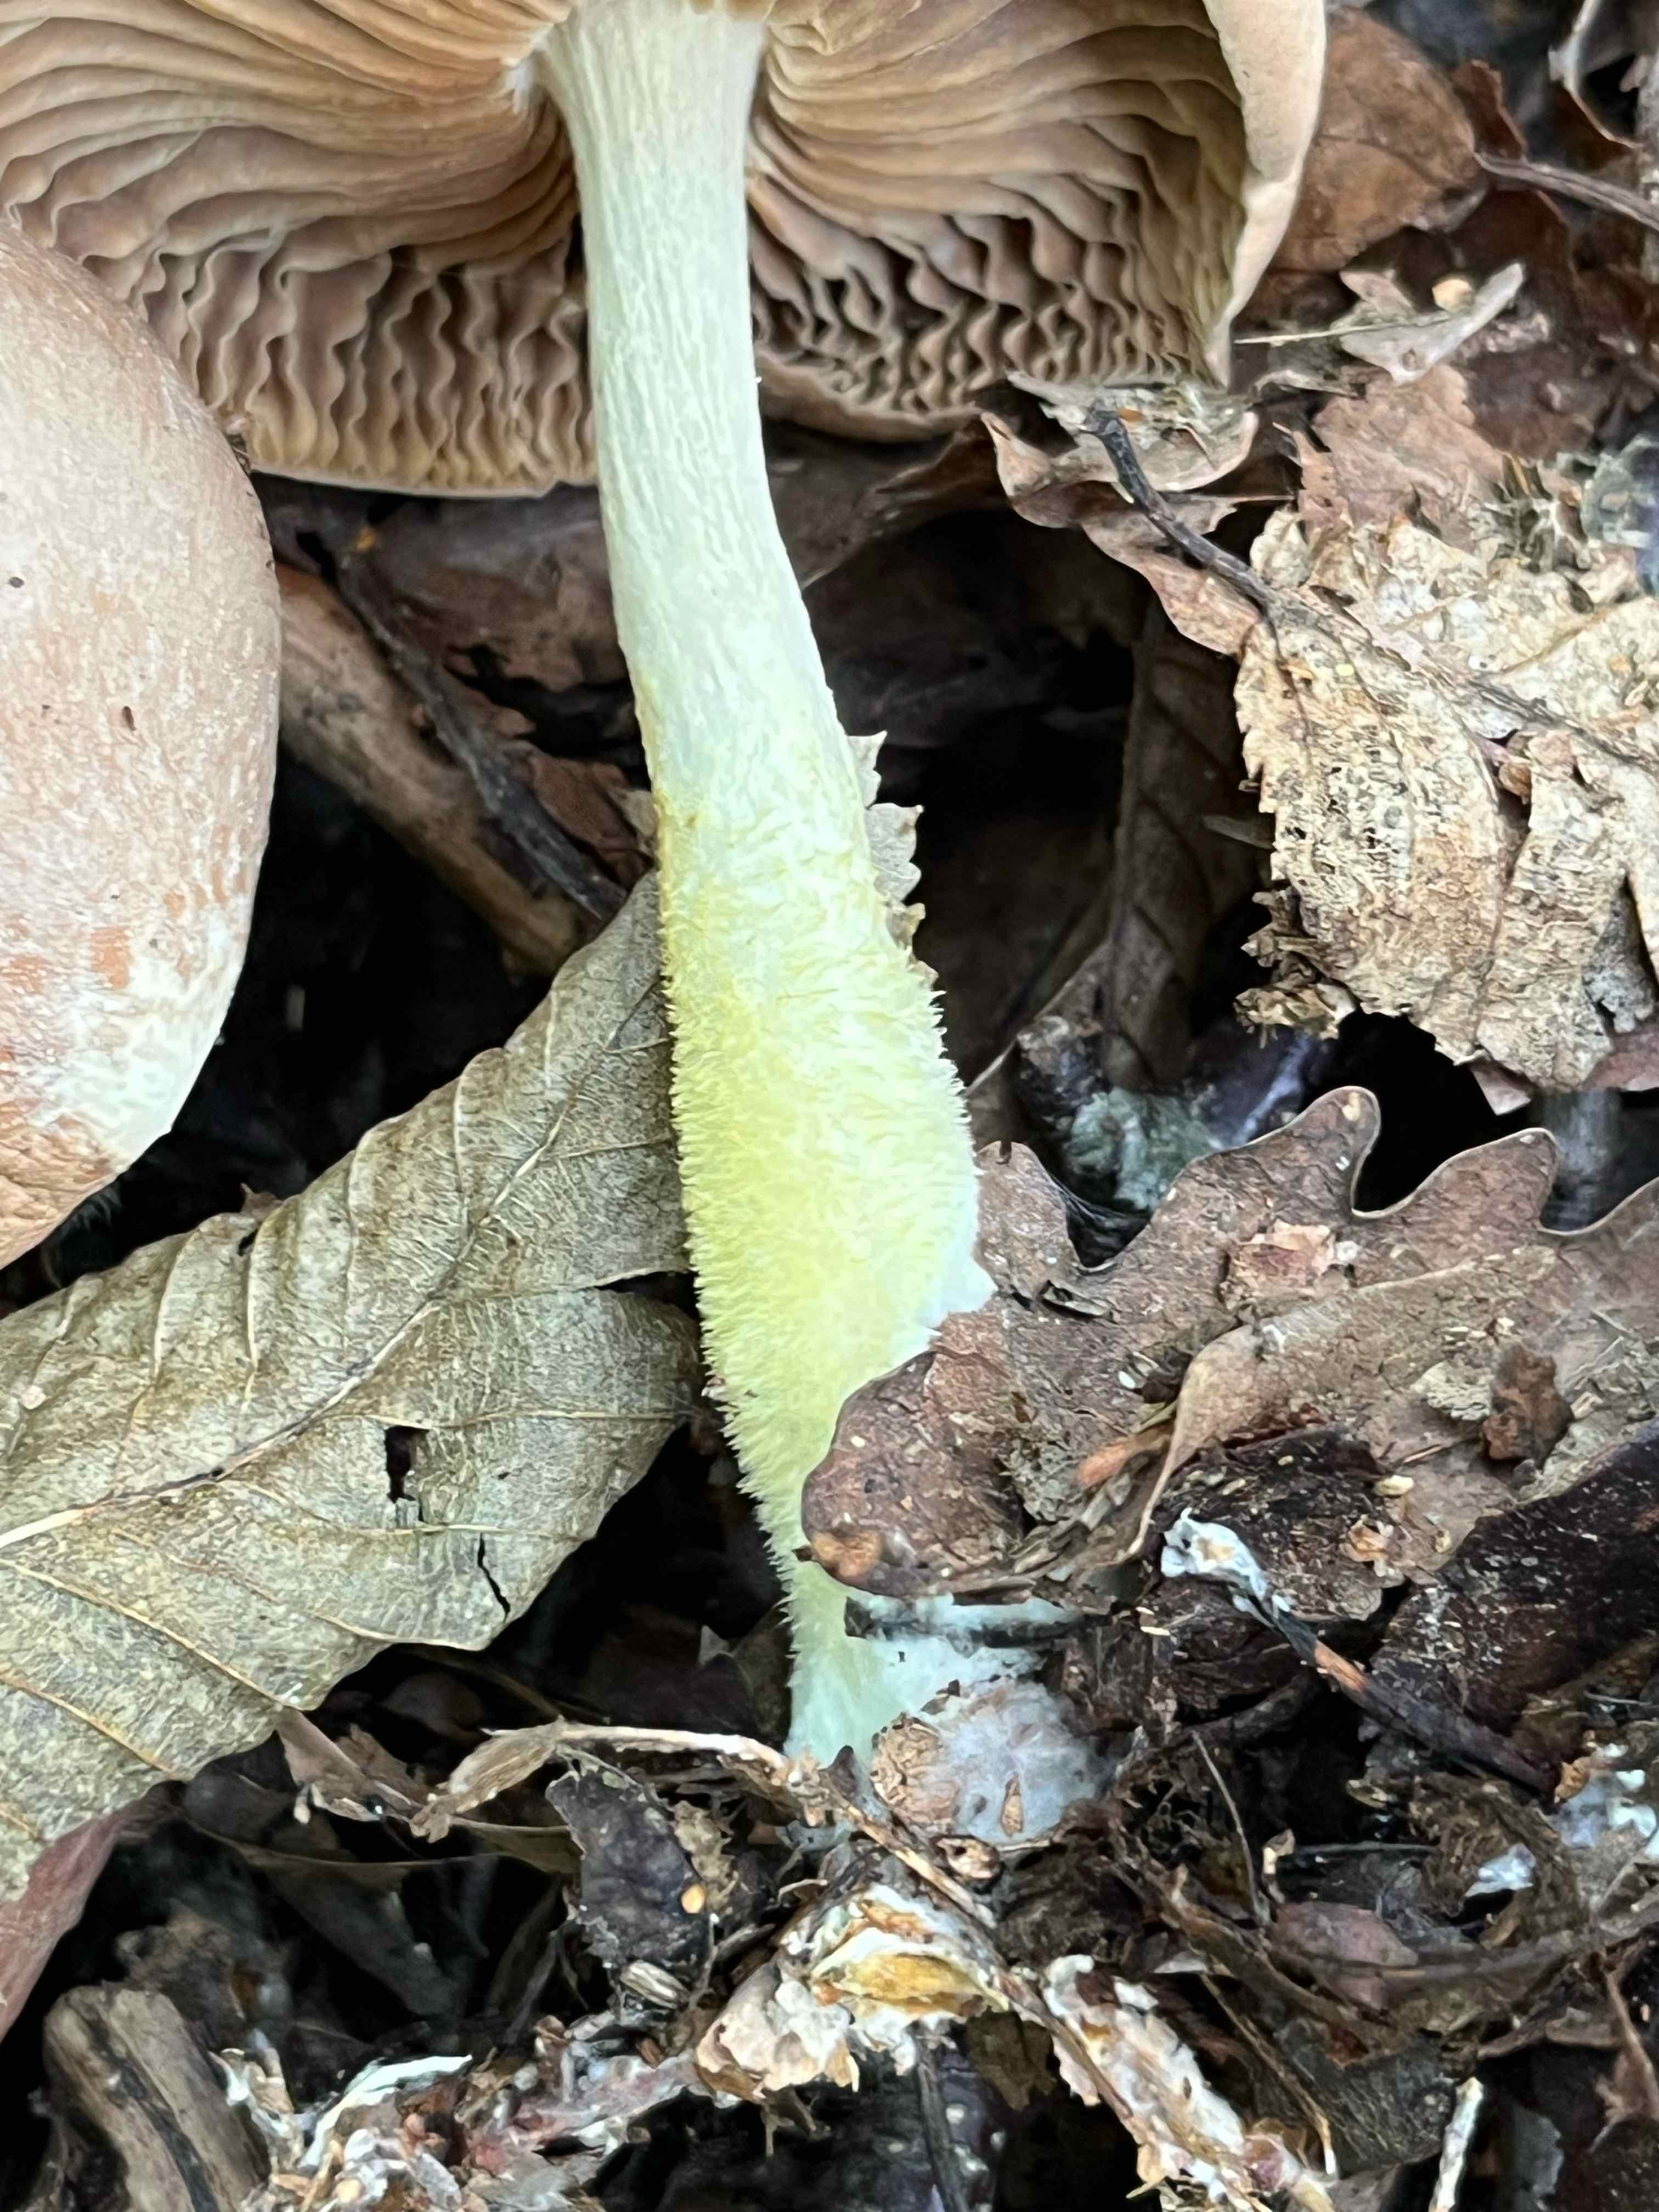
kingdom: Fungi
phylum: Basidiomycota
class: Agaricomycetes
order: Agaricales
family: Omphalotaceae
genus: Collybiopsis
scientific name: Collybiopsis peronata
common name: bestøvlet fladhat
